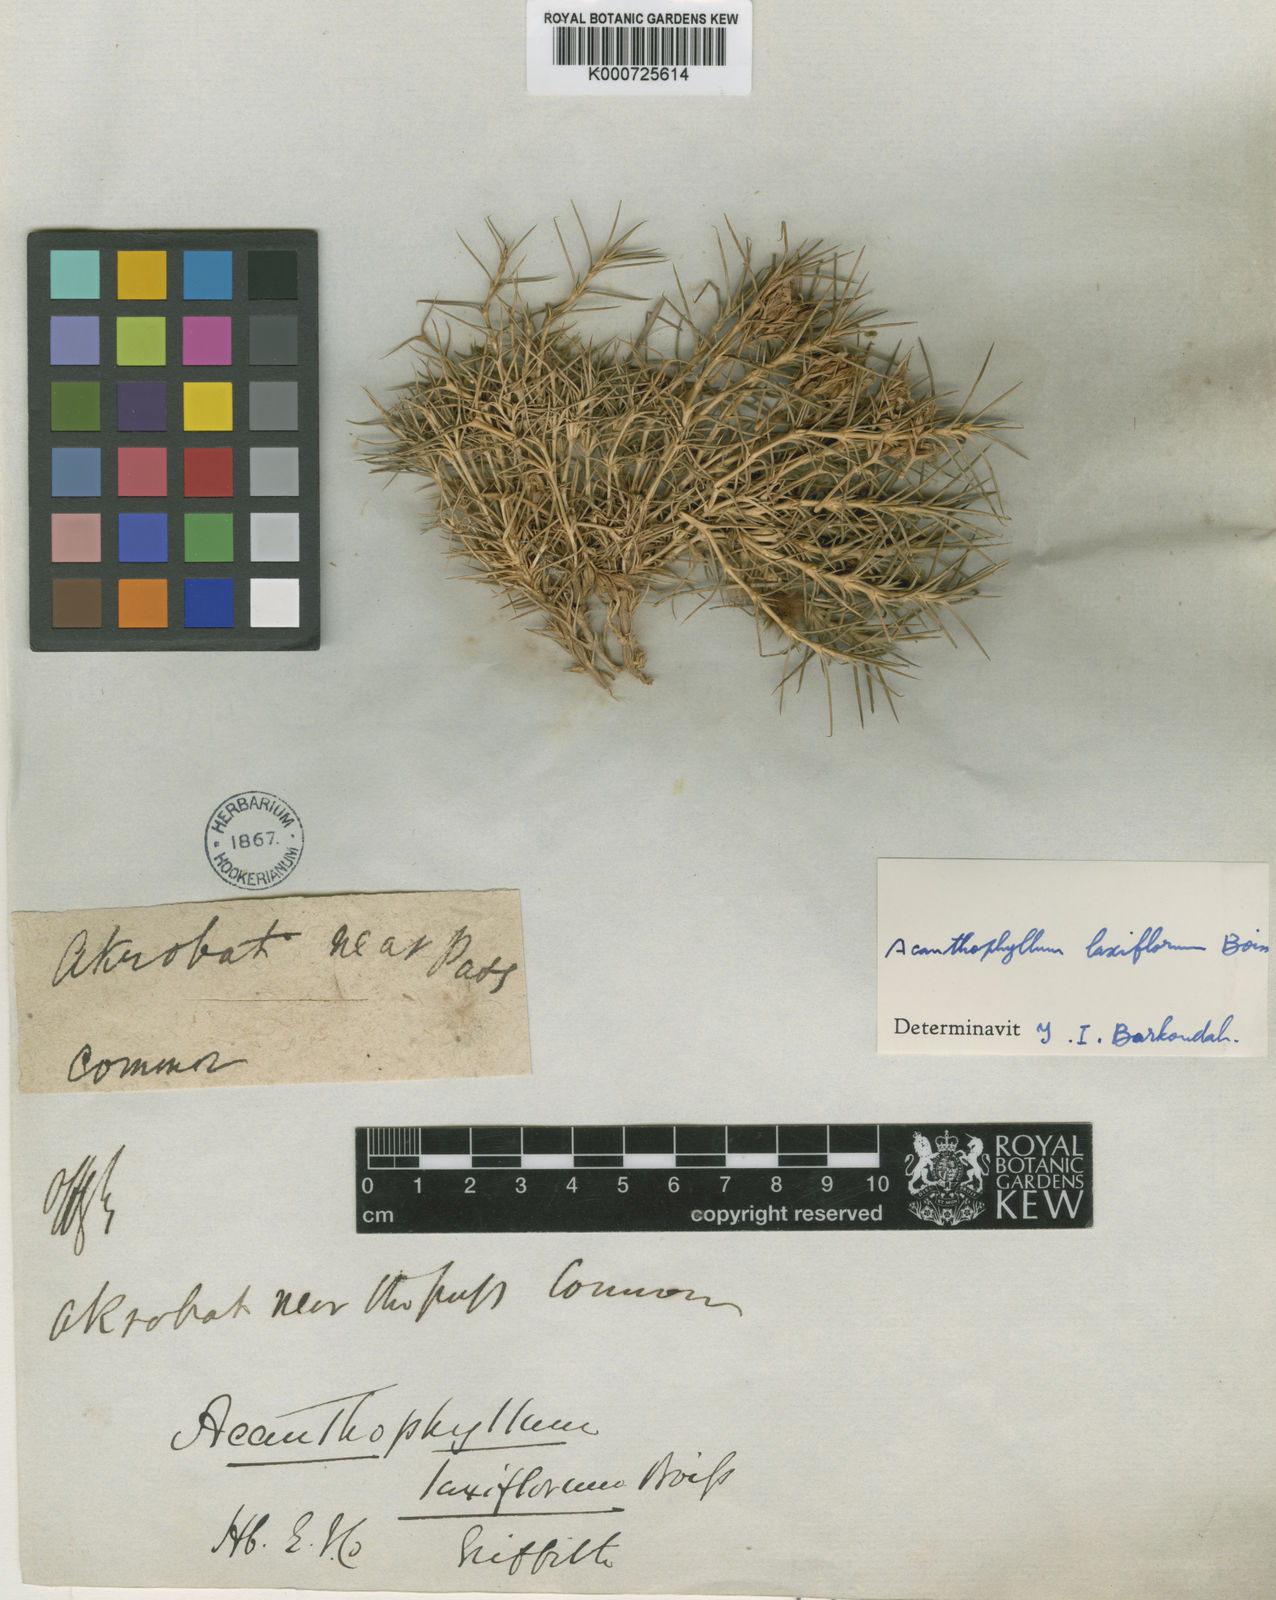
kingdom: Plantae
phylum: Tracheophyta
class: Magnoliopsida
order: Caryophyllales
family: Caryophyllaceae
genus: Acanthophyllum
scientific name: Acanthophyllum laxiflorum
